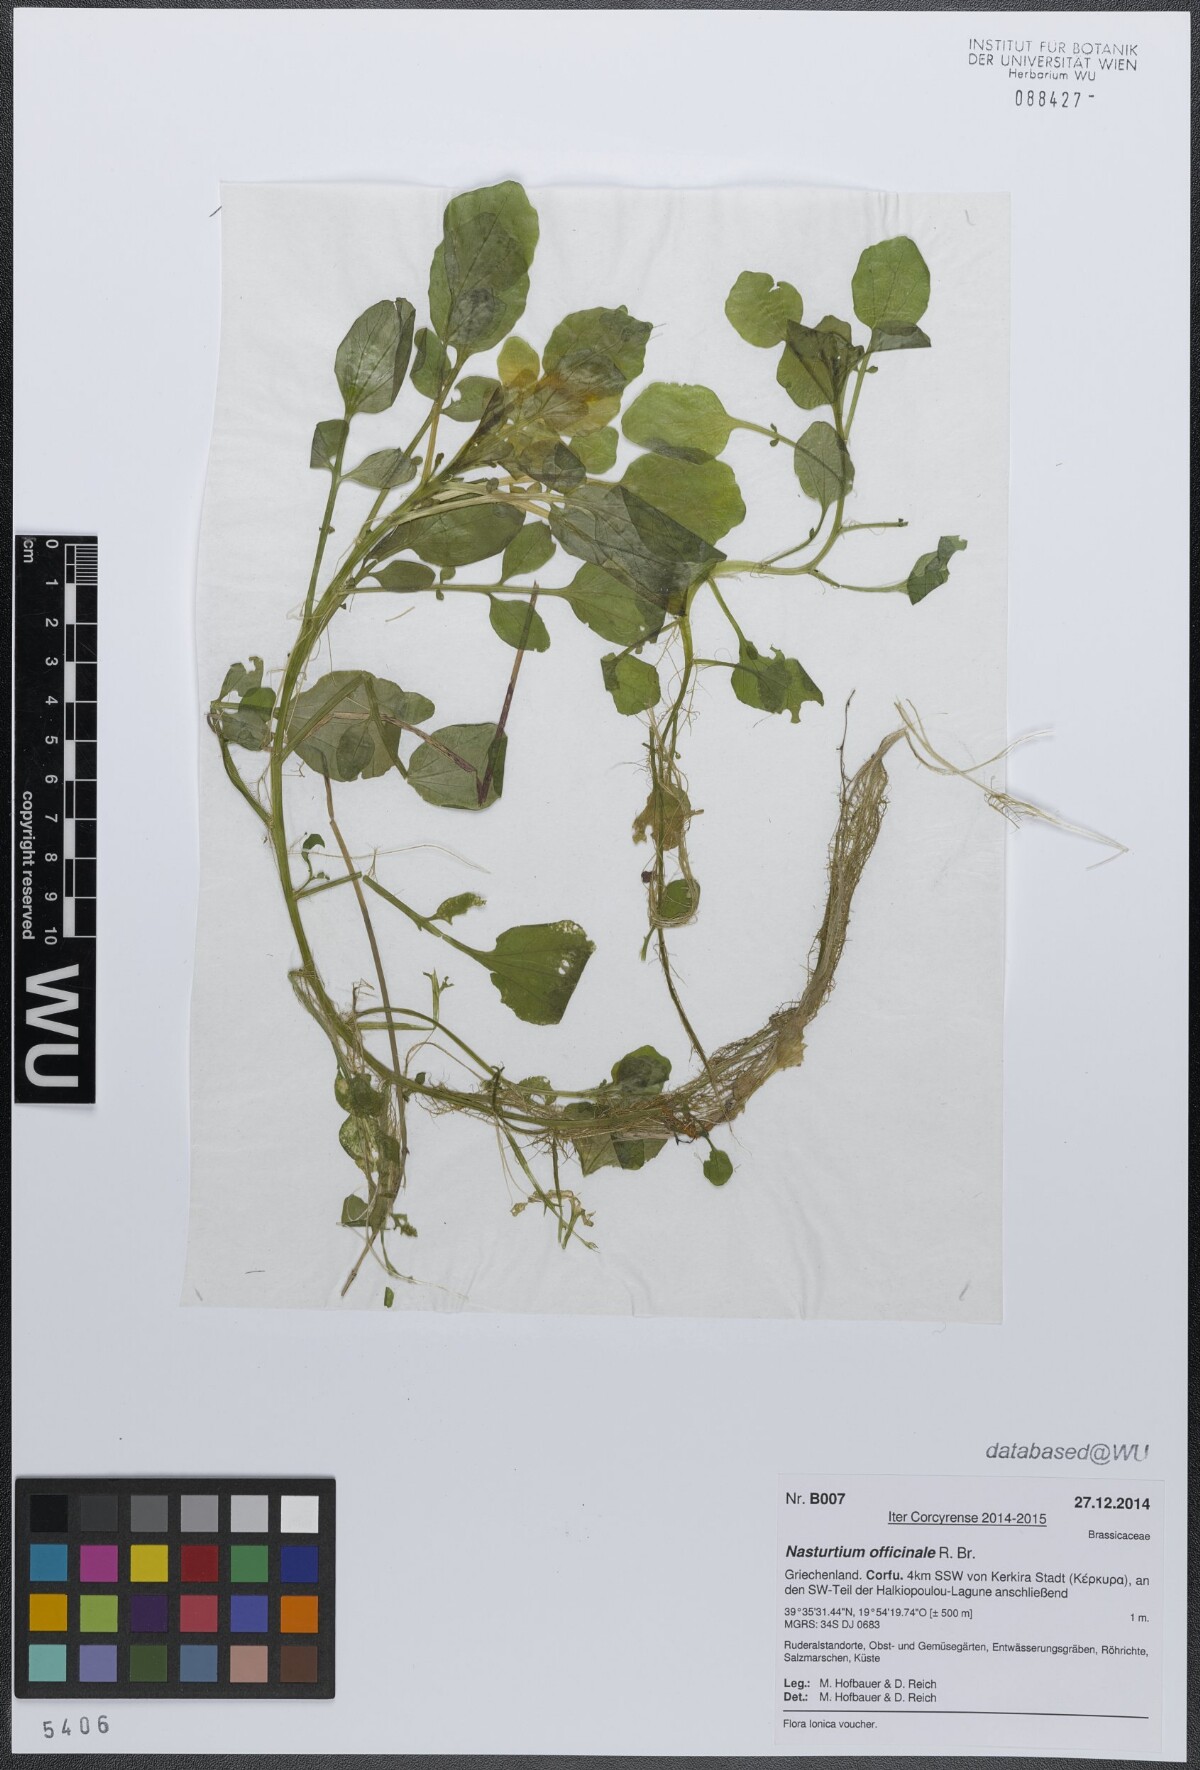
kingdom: Plantae
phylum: Tracheophyta
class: Magnoliopsida
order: Brassicales
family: Brassicaceae
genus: Nasturtium
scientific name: Nasturtium officinale
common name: Watercress
